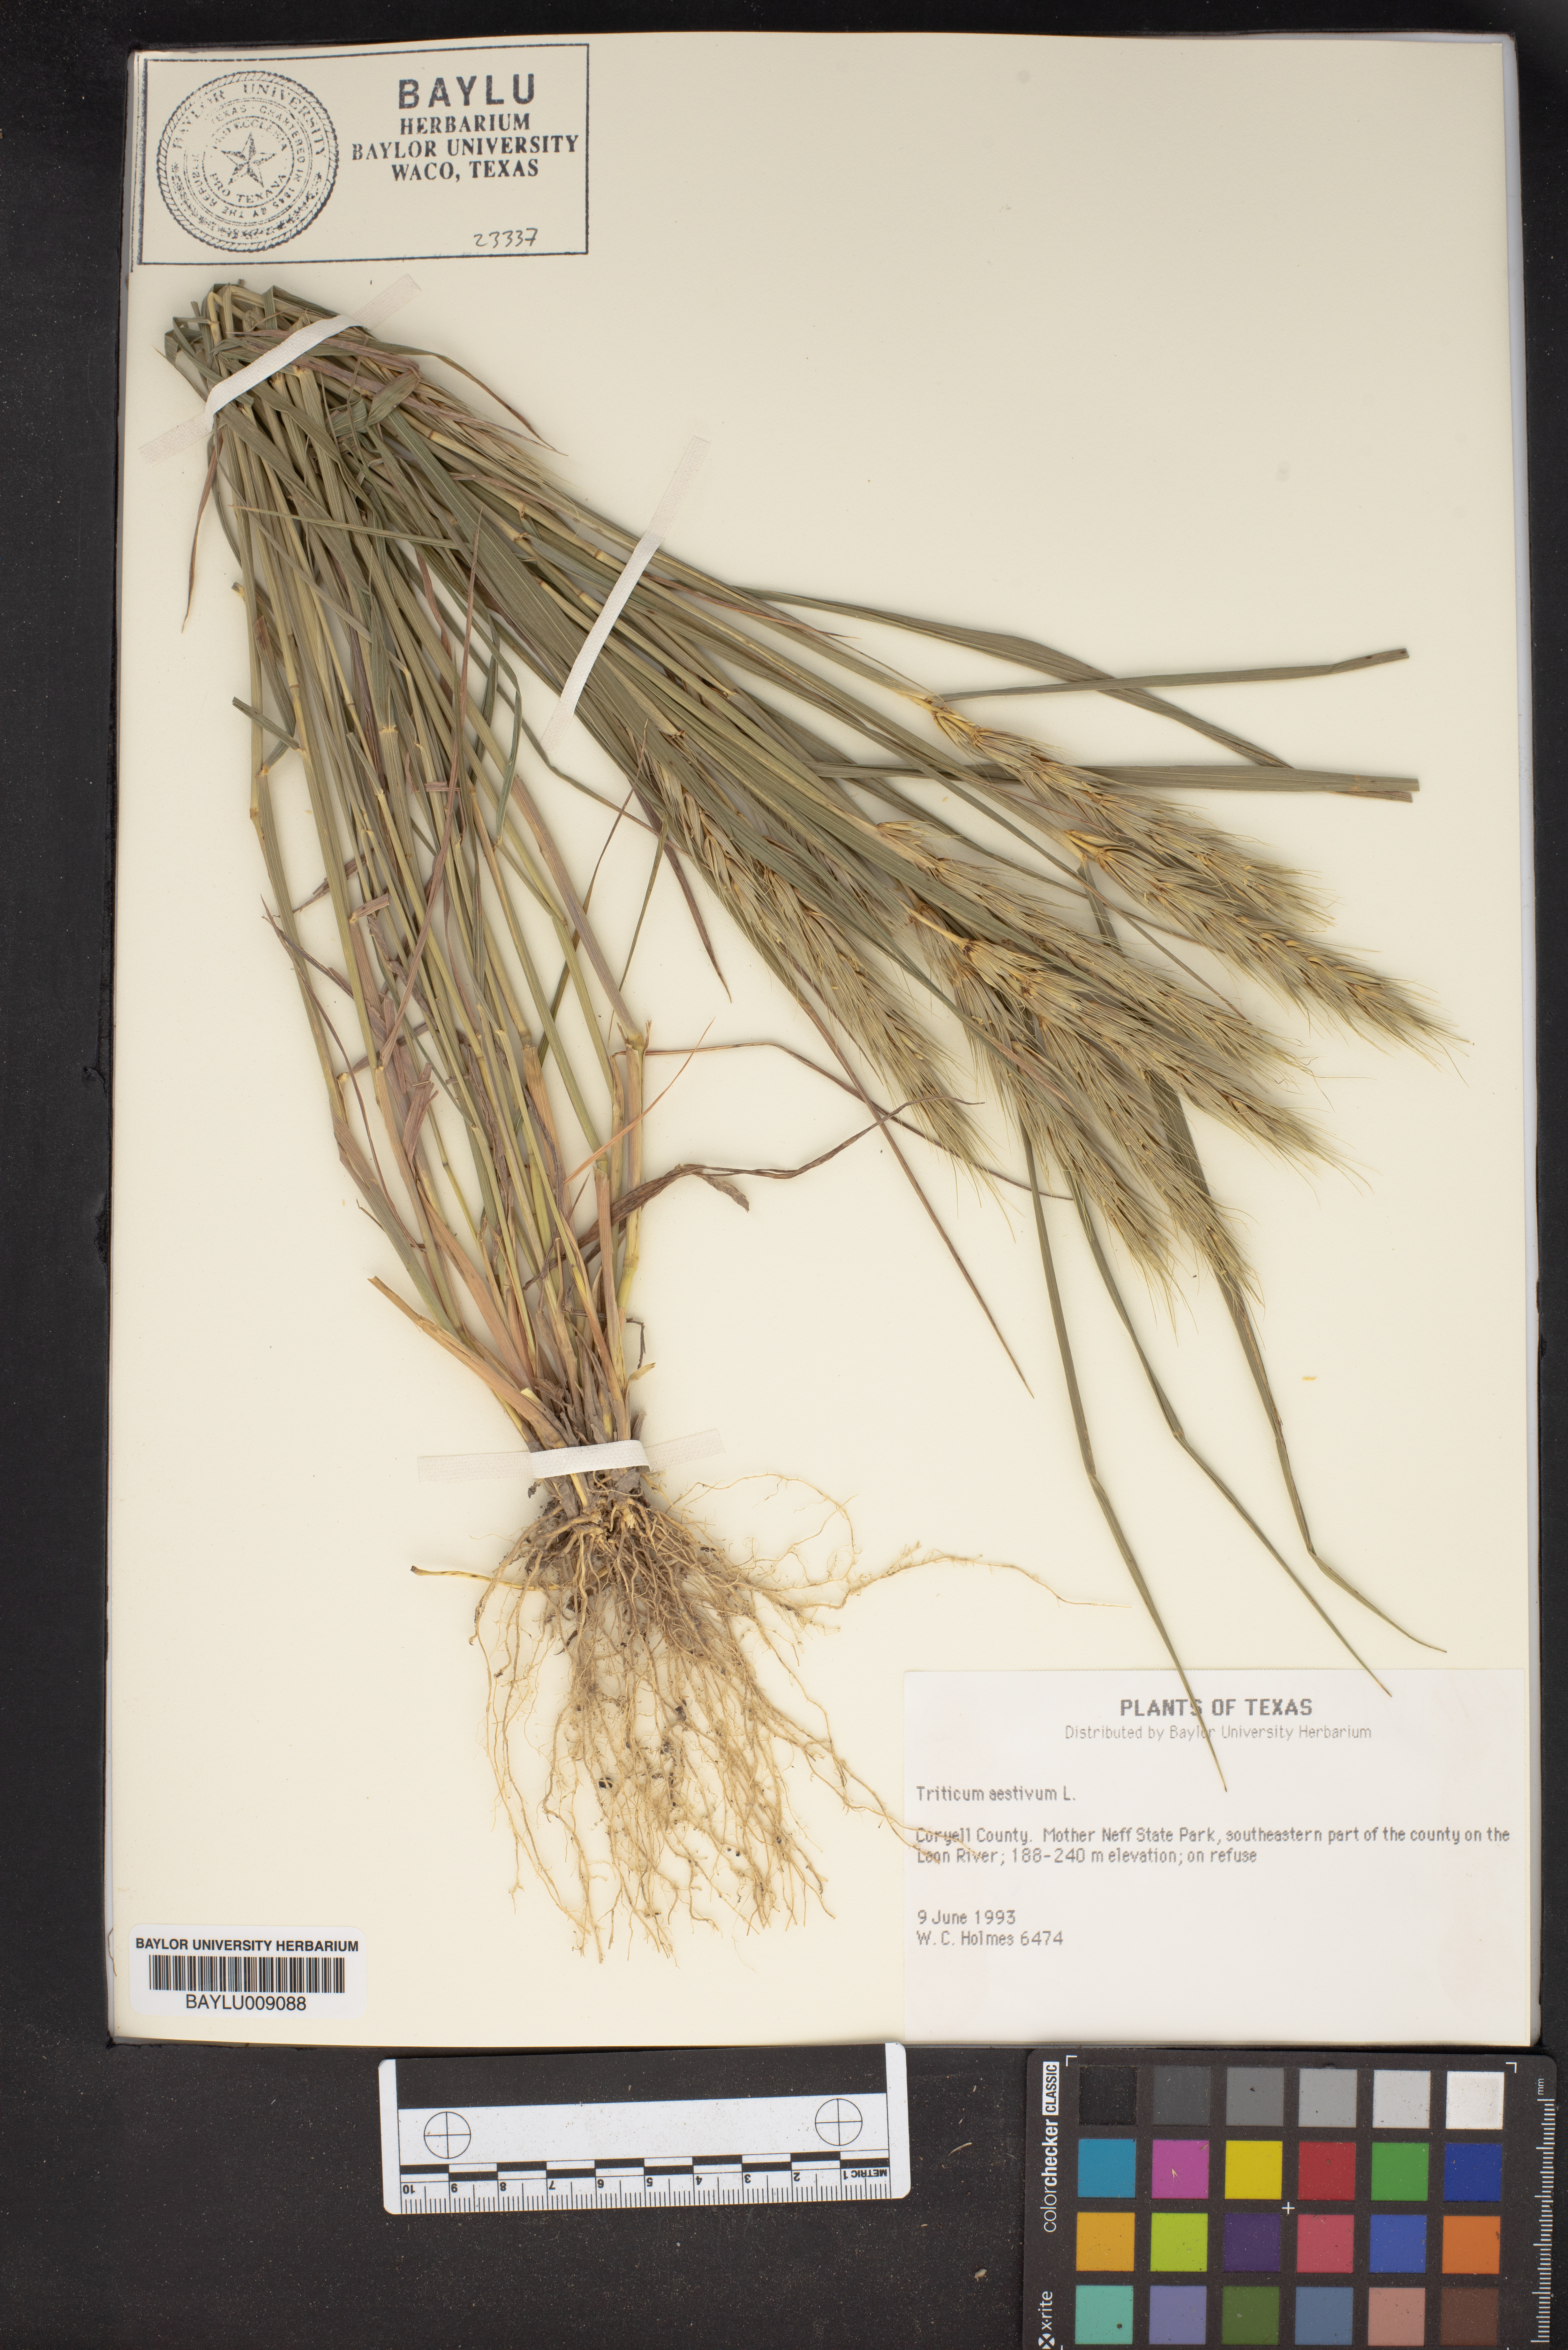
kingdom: Plantae
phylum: Tracheophyta
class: Liliopsida
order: Poales
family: Poaceae
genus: Triticum
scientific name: Triticum aestivum
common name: Common wheat
